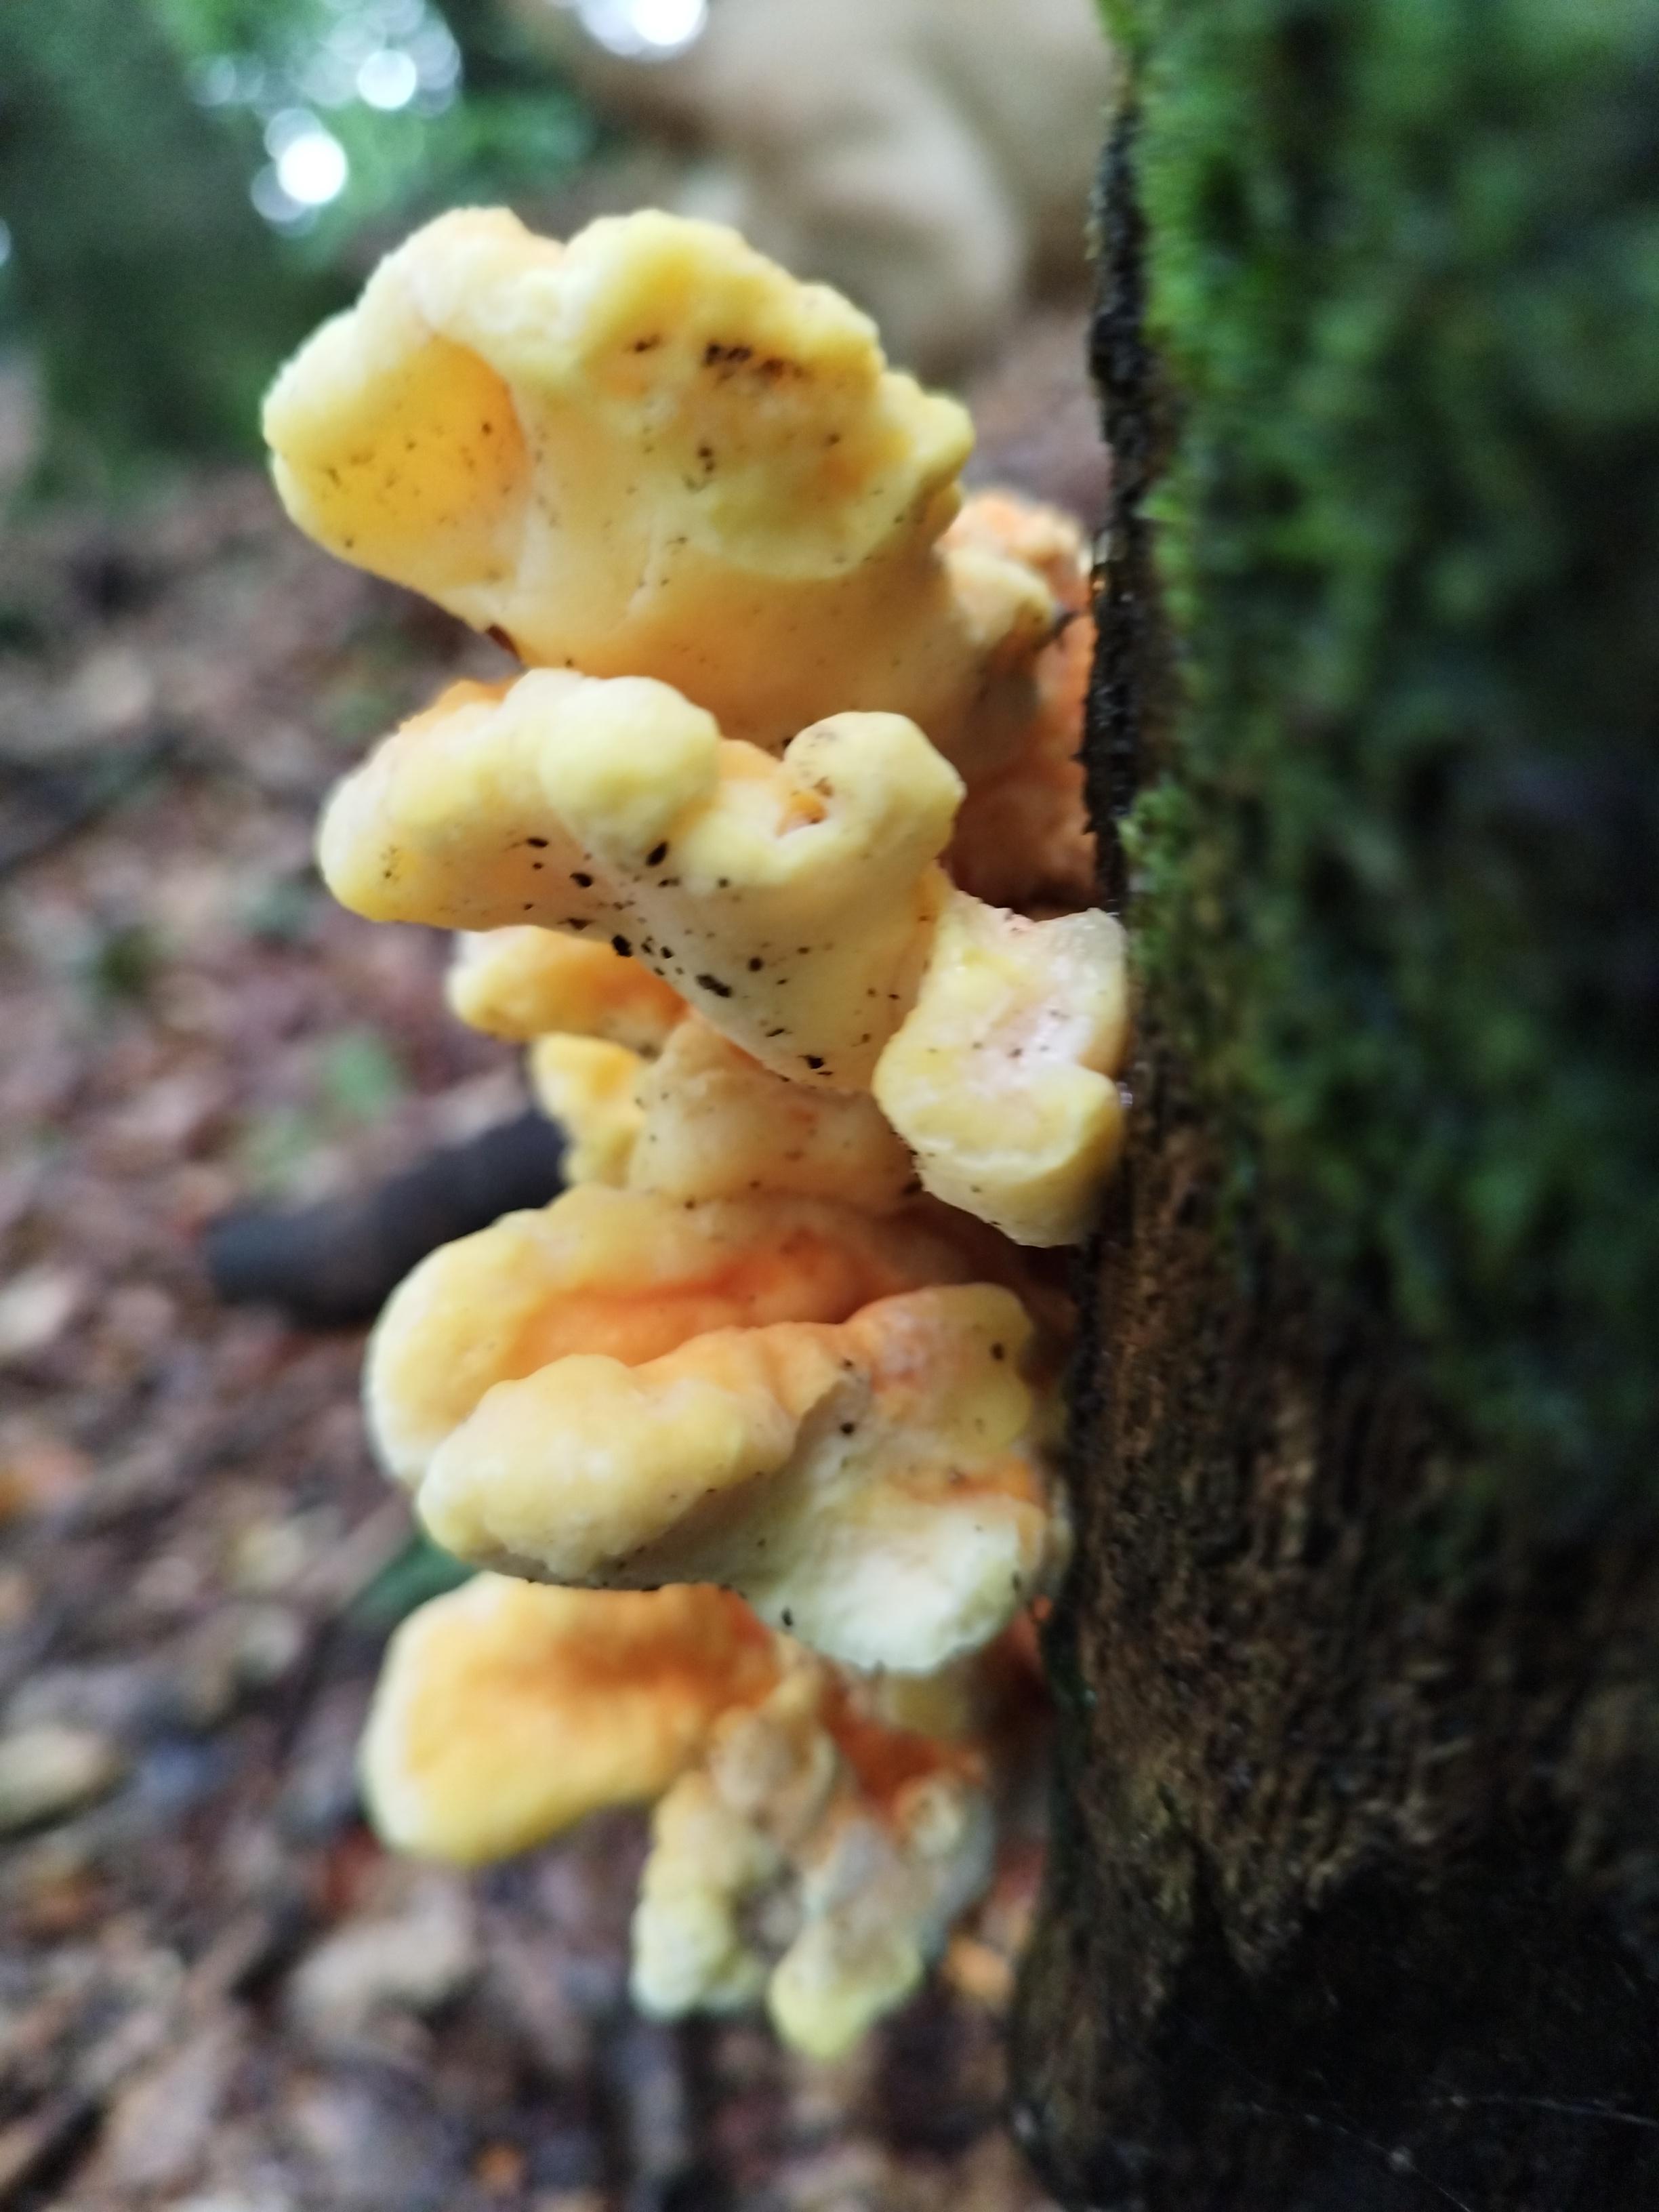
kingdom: Fungi
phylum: Basidiomycota
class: Agaricomycetes
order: Polyporales
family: Laetiporaceae
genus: Laetiporus
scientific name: Laetiporus sulphureus
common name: svovlporesvamp
